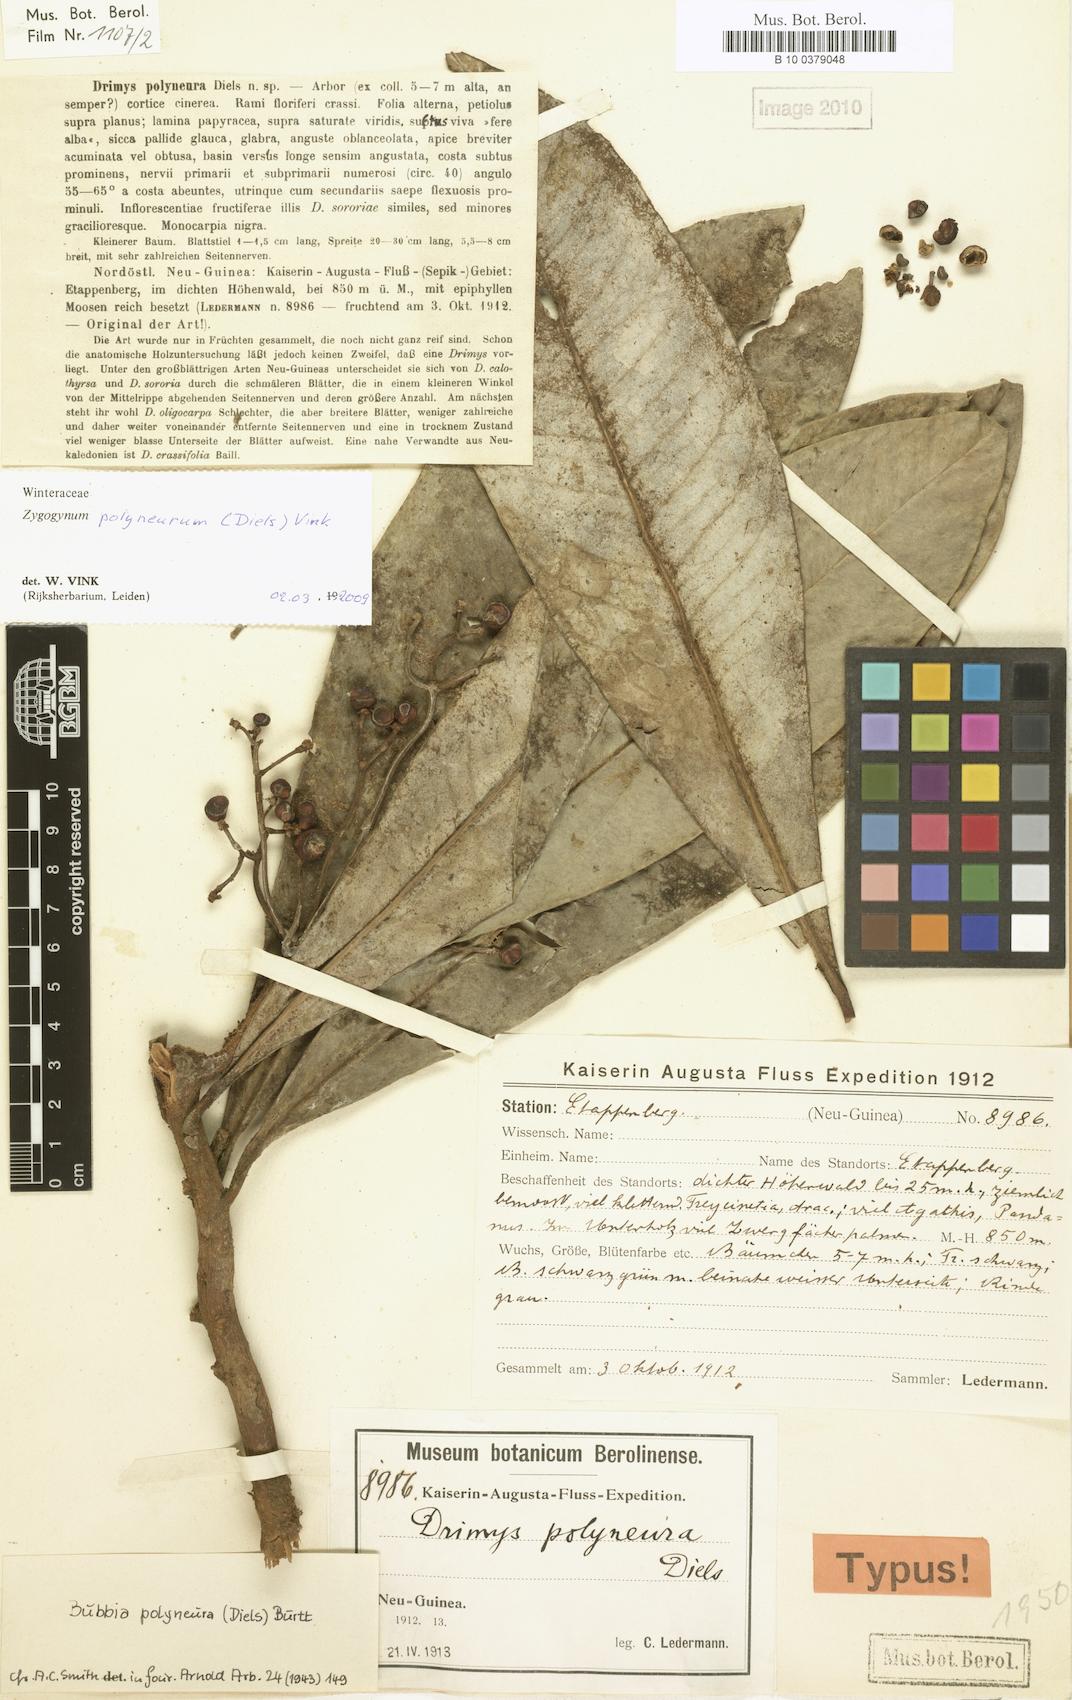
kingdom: Plantae
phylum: Tracheophyta
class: Magnoliopsida
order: Canellales
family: Winteraceae
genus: Zygogynum
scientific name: Zygogynum polyneurum
